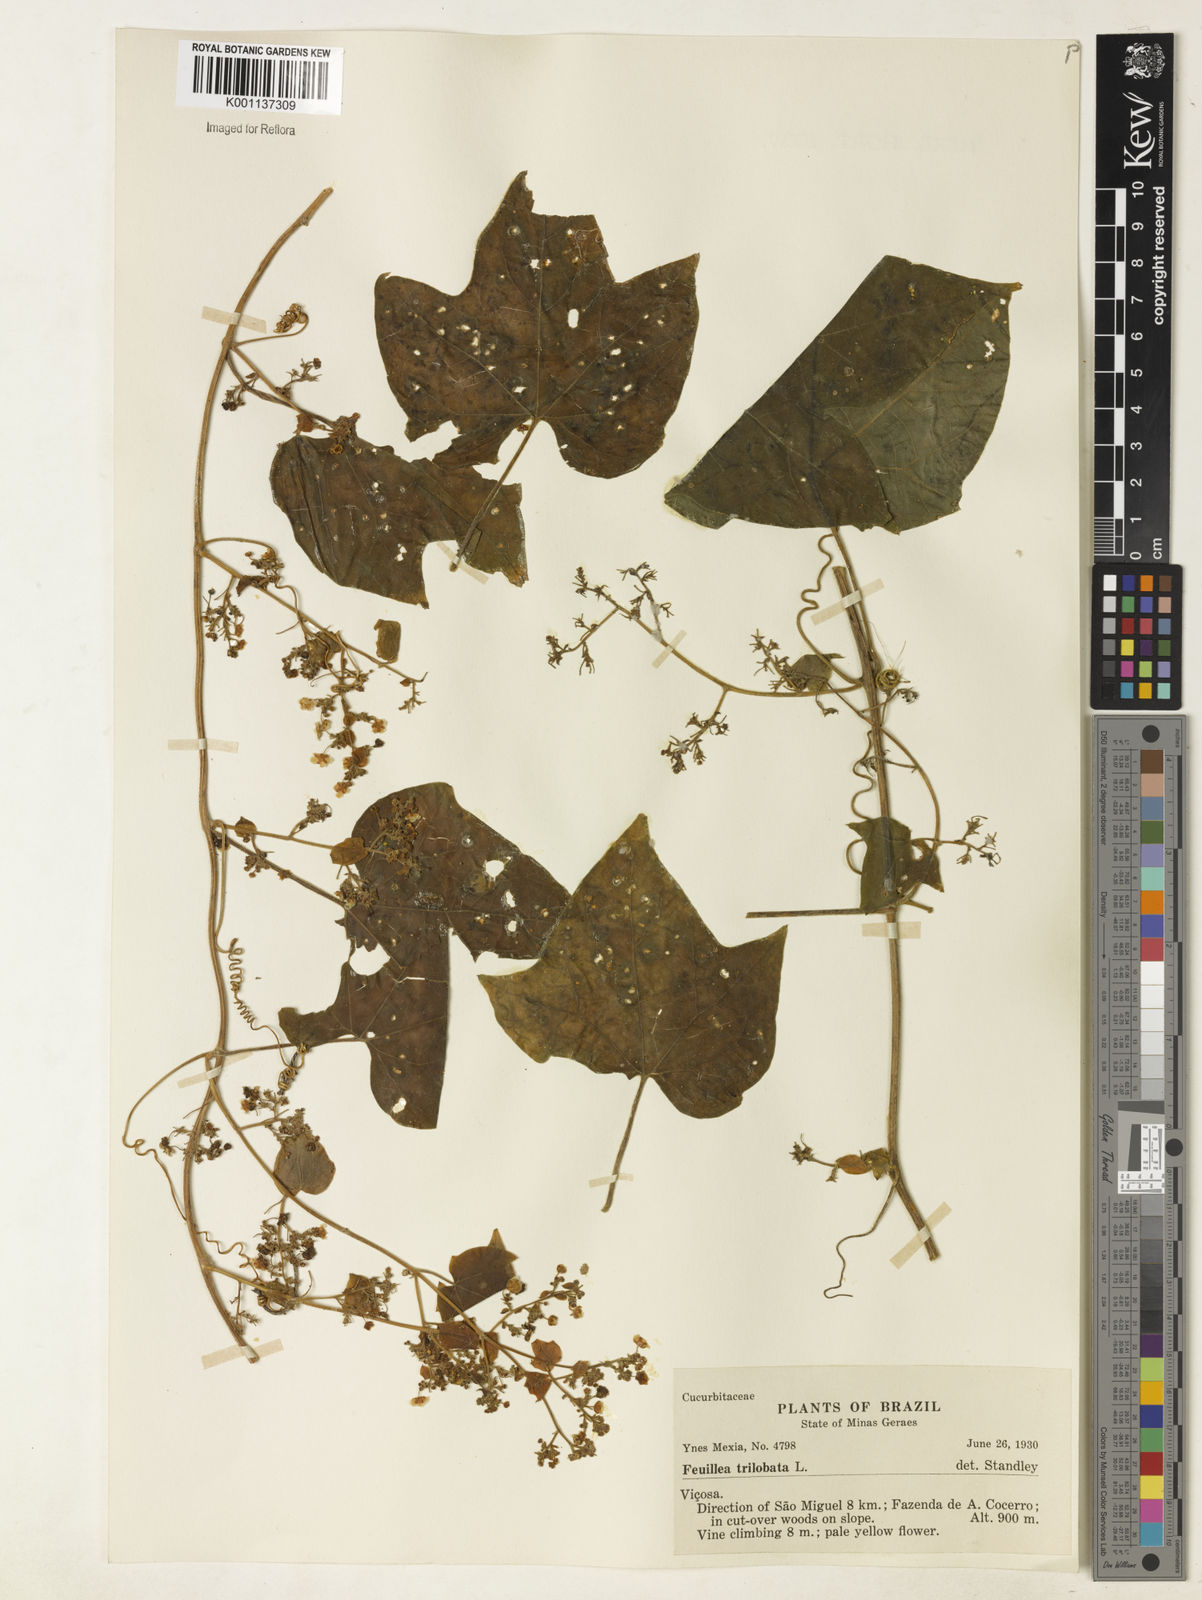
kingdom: Plantae
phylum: Tracheophyta
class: Magnoliopsida
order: Cucurbitales
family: Cucurbitaceae
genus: Fevillea
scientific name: Fevillea trilobata
